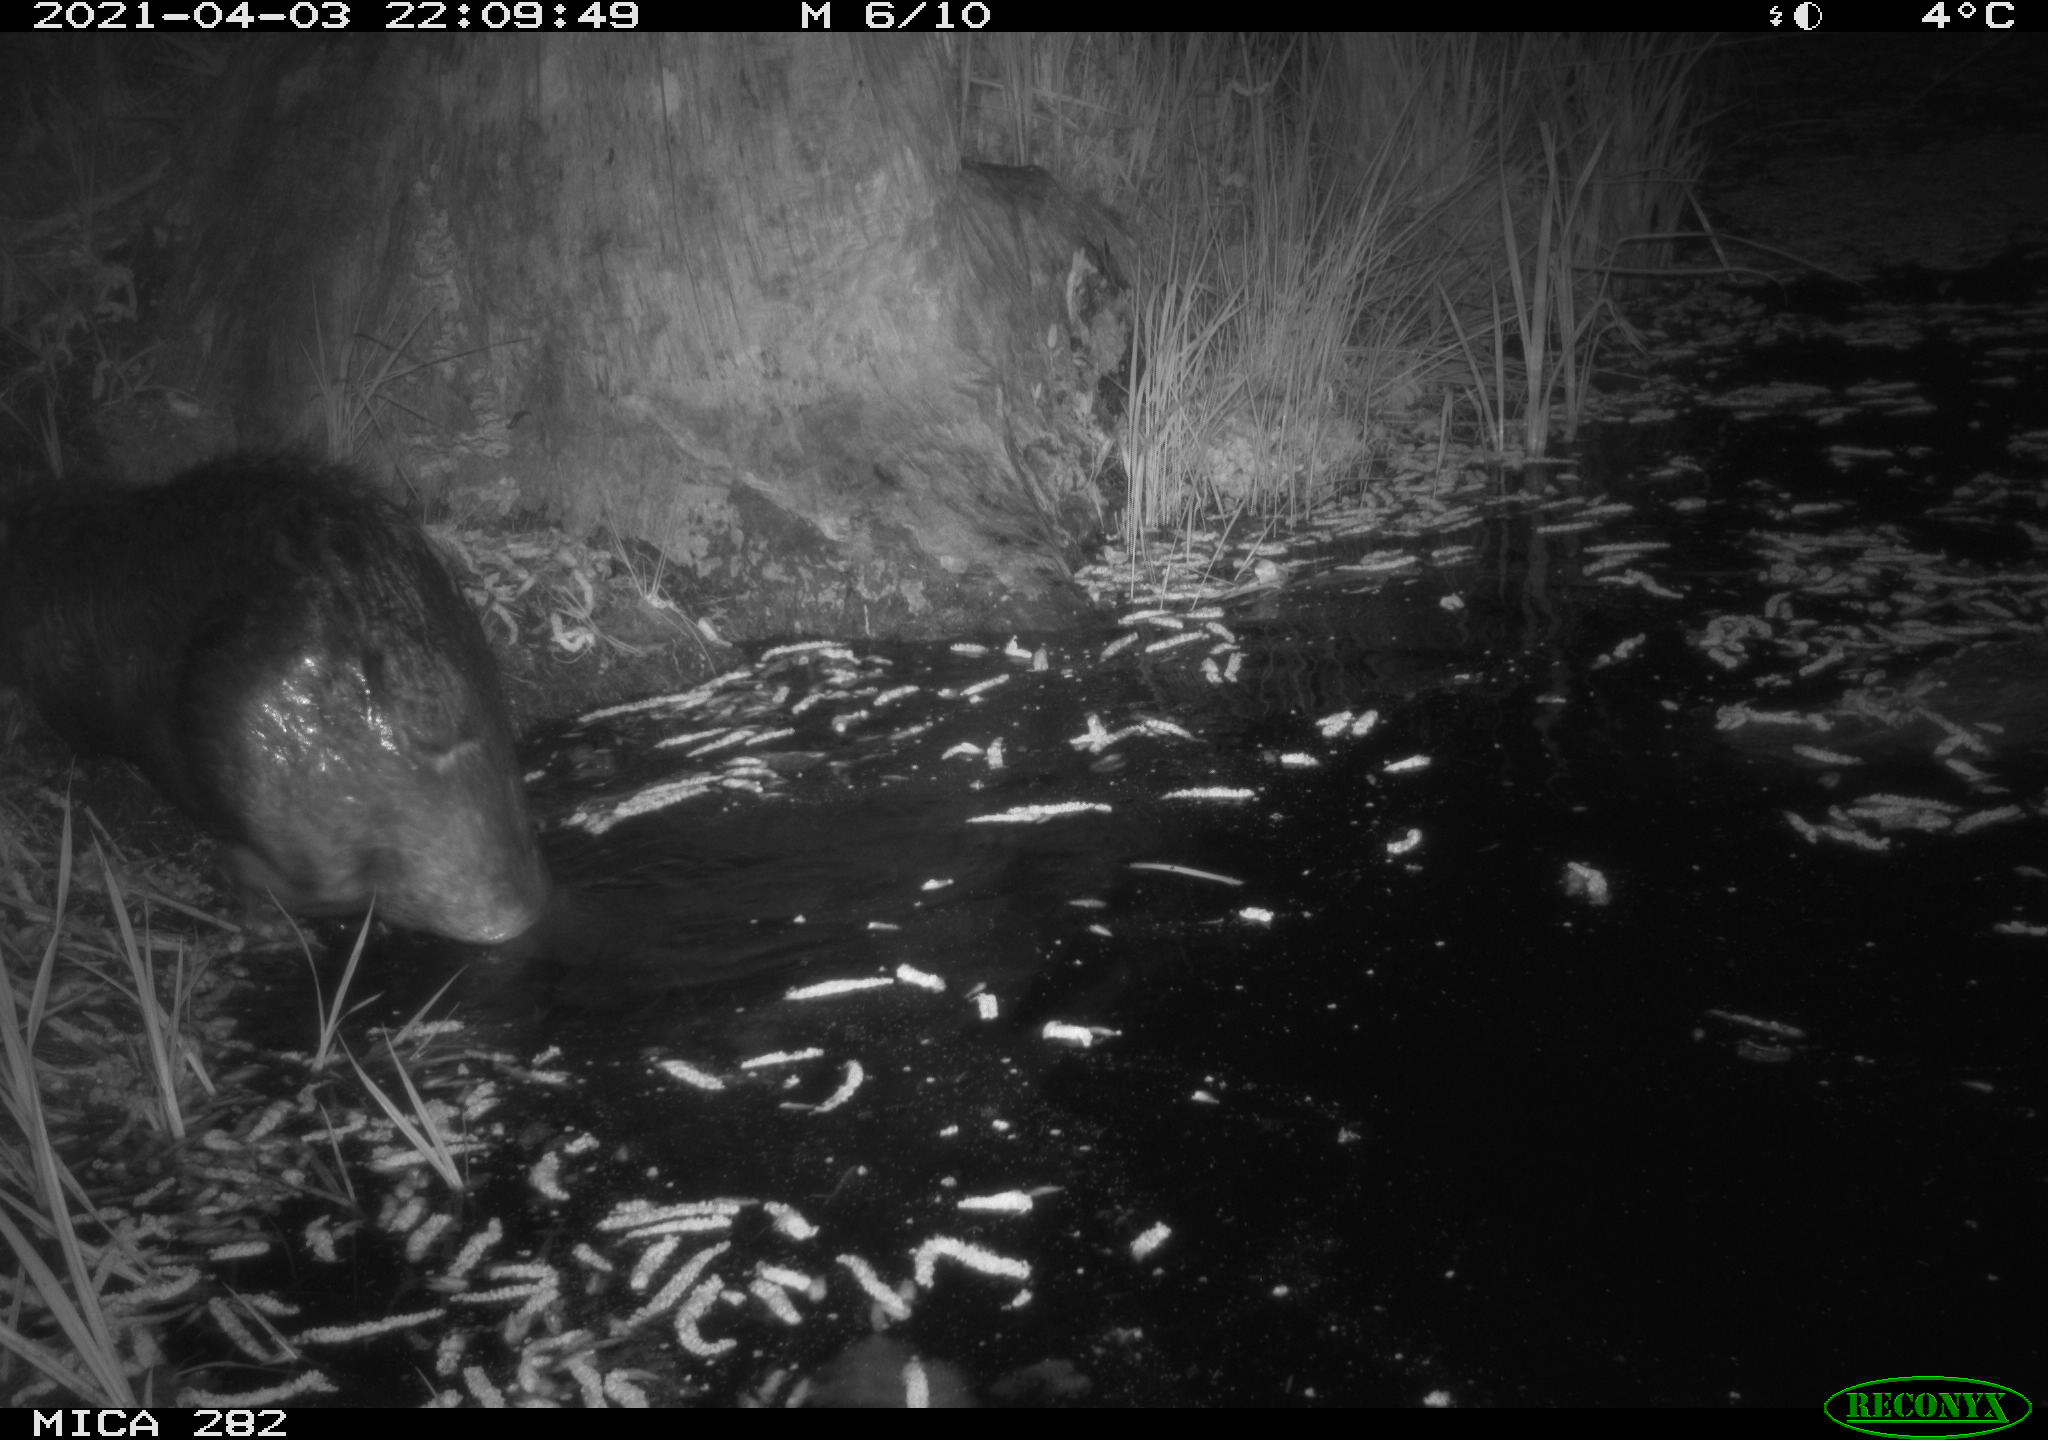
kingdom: Animalia
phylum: Chordata
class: Mammalia
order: Rodentia
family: Castoridae
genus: Castor
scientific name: Castor fiber
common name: Eurasian beaver
